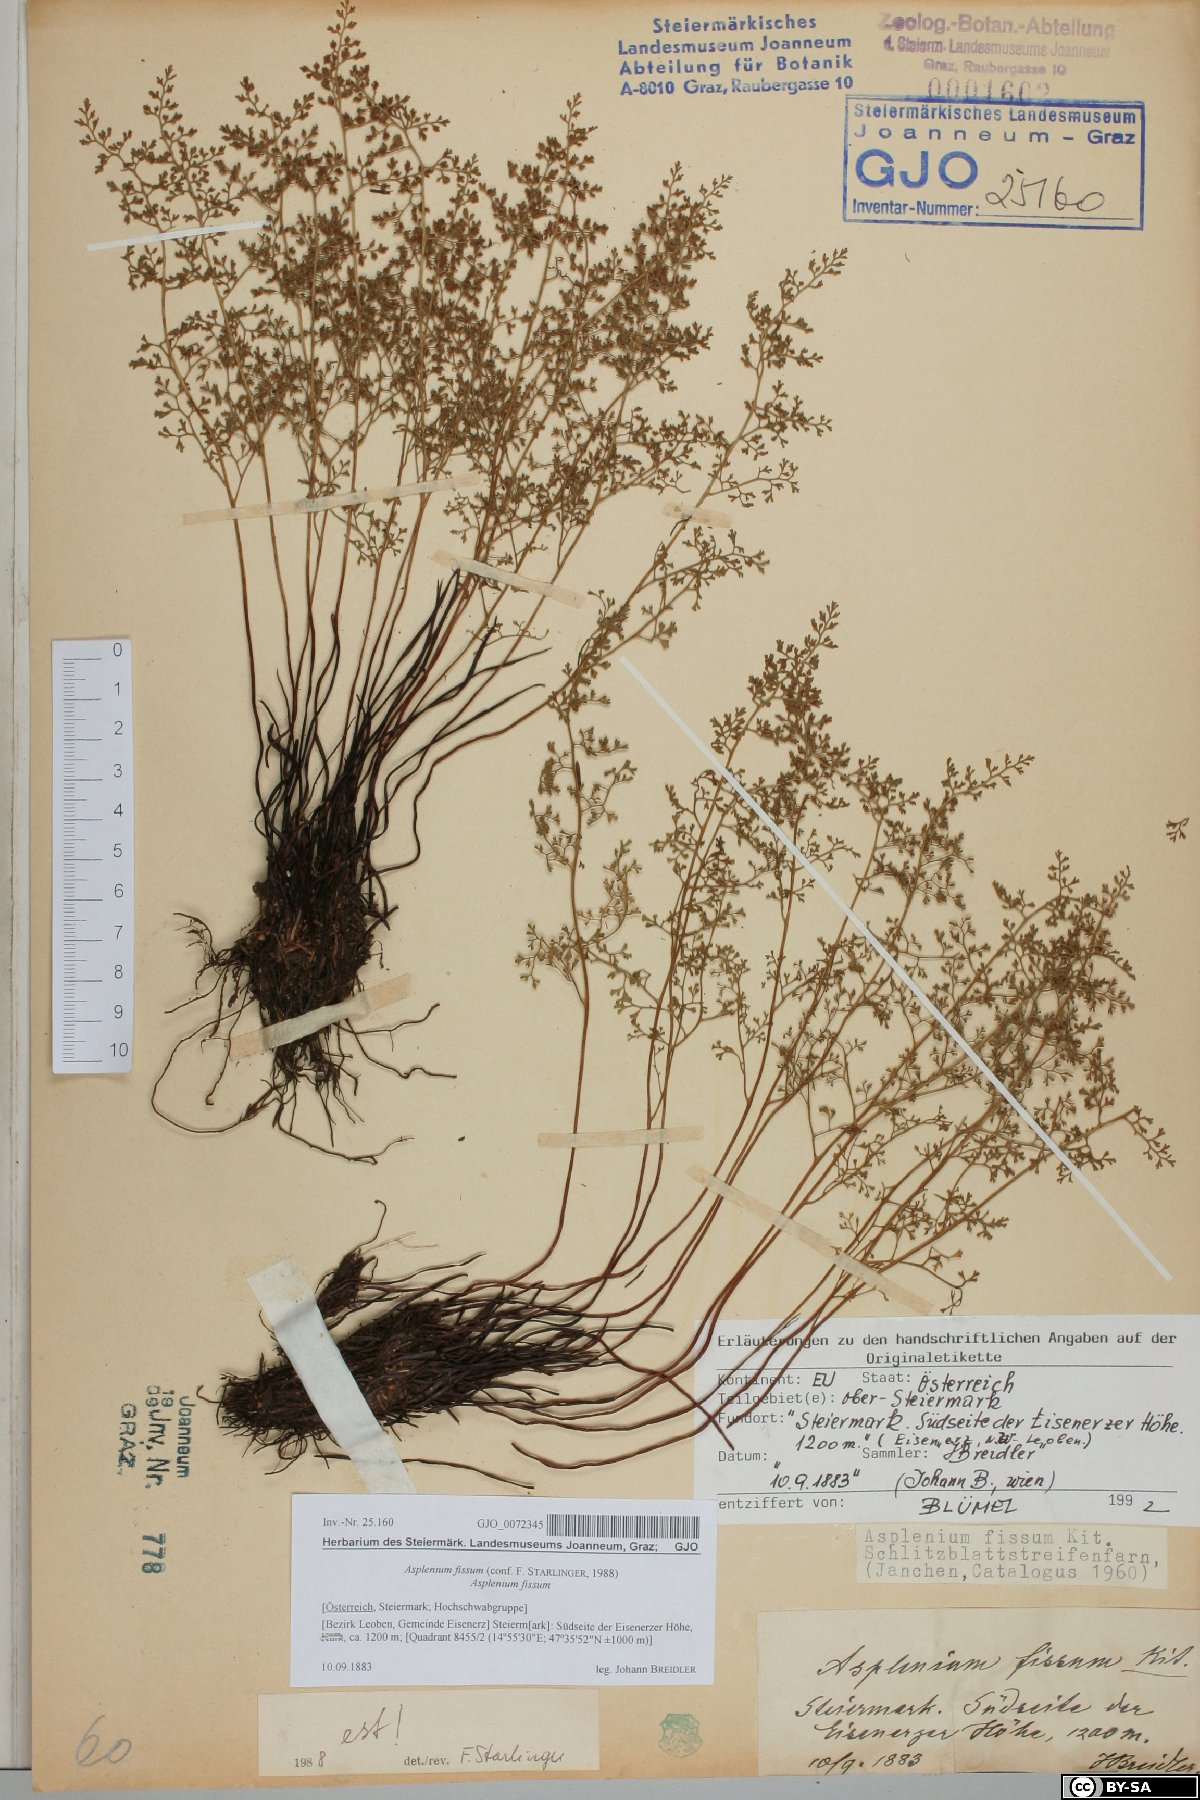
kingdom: Plantae
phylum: Tracheophyta
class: Polypodiopsida
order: Polypodiales
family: Aspleniaceae
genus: Asplenium
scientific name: Asplenium fissum
